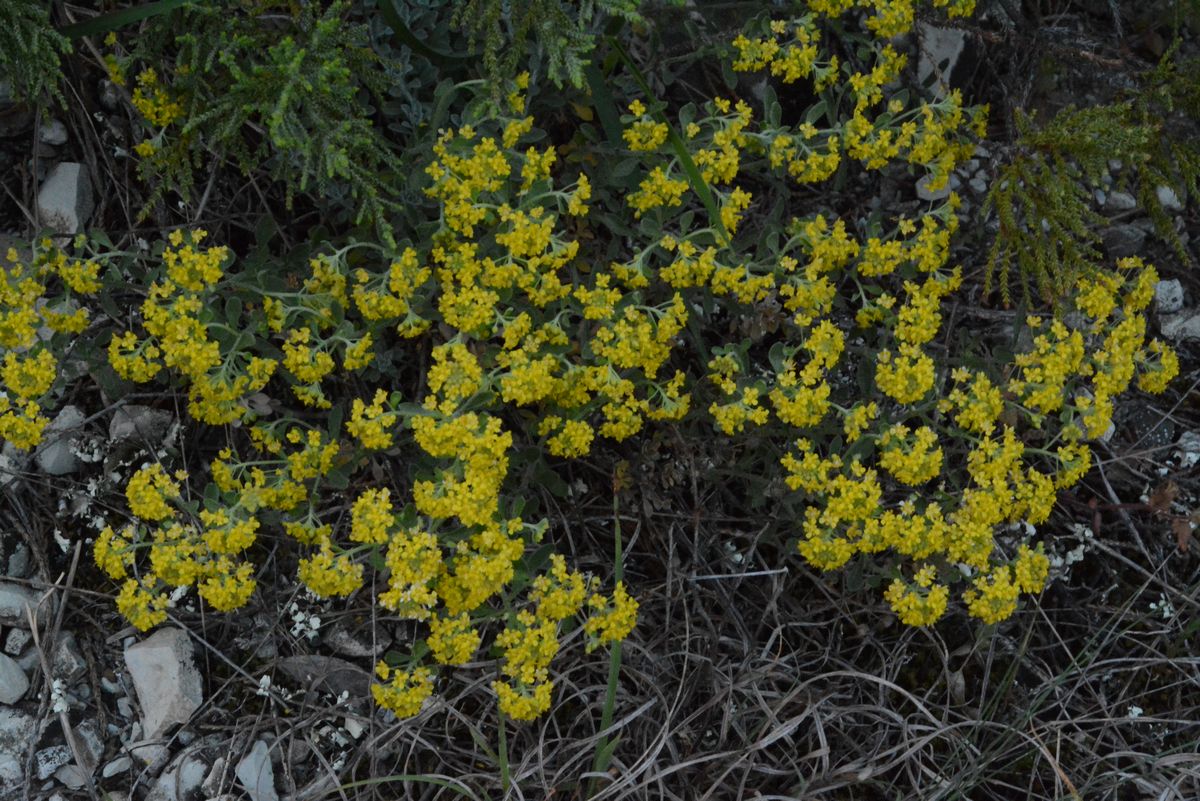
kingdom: Plantae
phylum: Tracheophyta
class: Magnoliopsida
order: Brassicales
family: Brassicaceae
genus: Alyssum
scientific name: Alyssum
